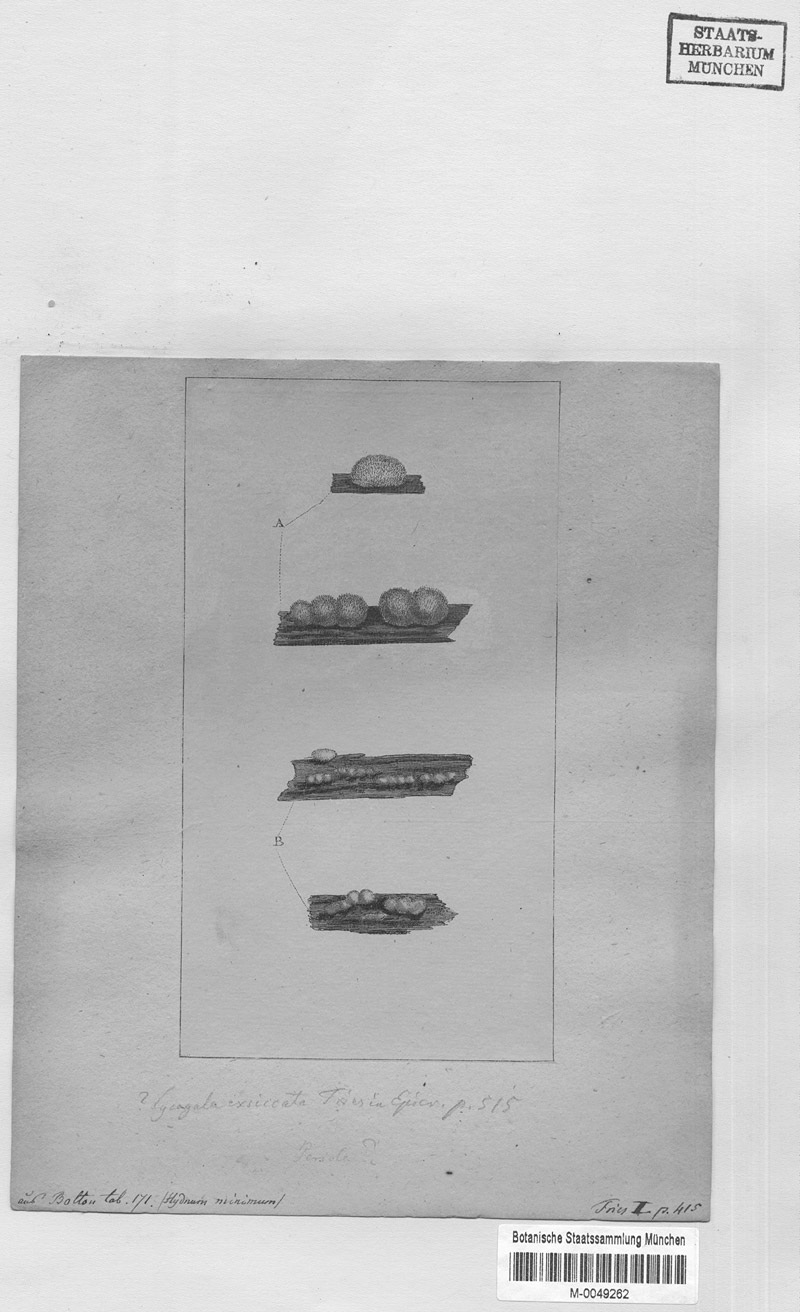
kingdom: Protozoa
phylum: Mycetozoa
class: Myxomycetes
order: Cribrariales
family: Tubiferaceae
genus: Lycogala
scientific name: Lycogala
